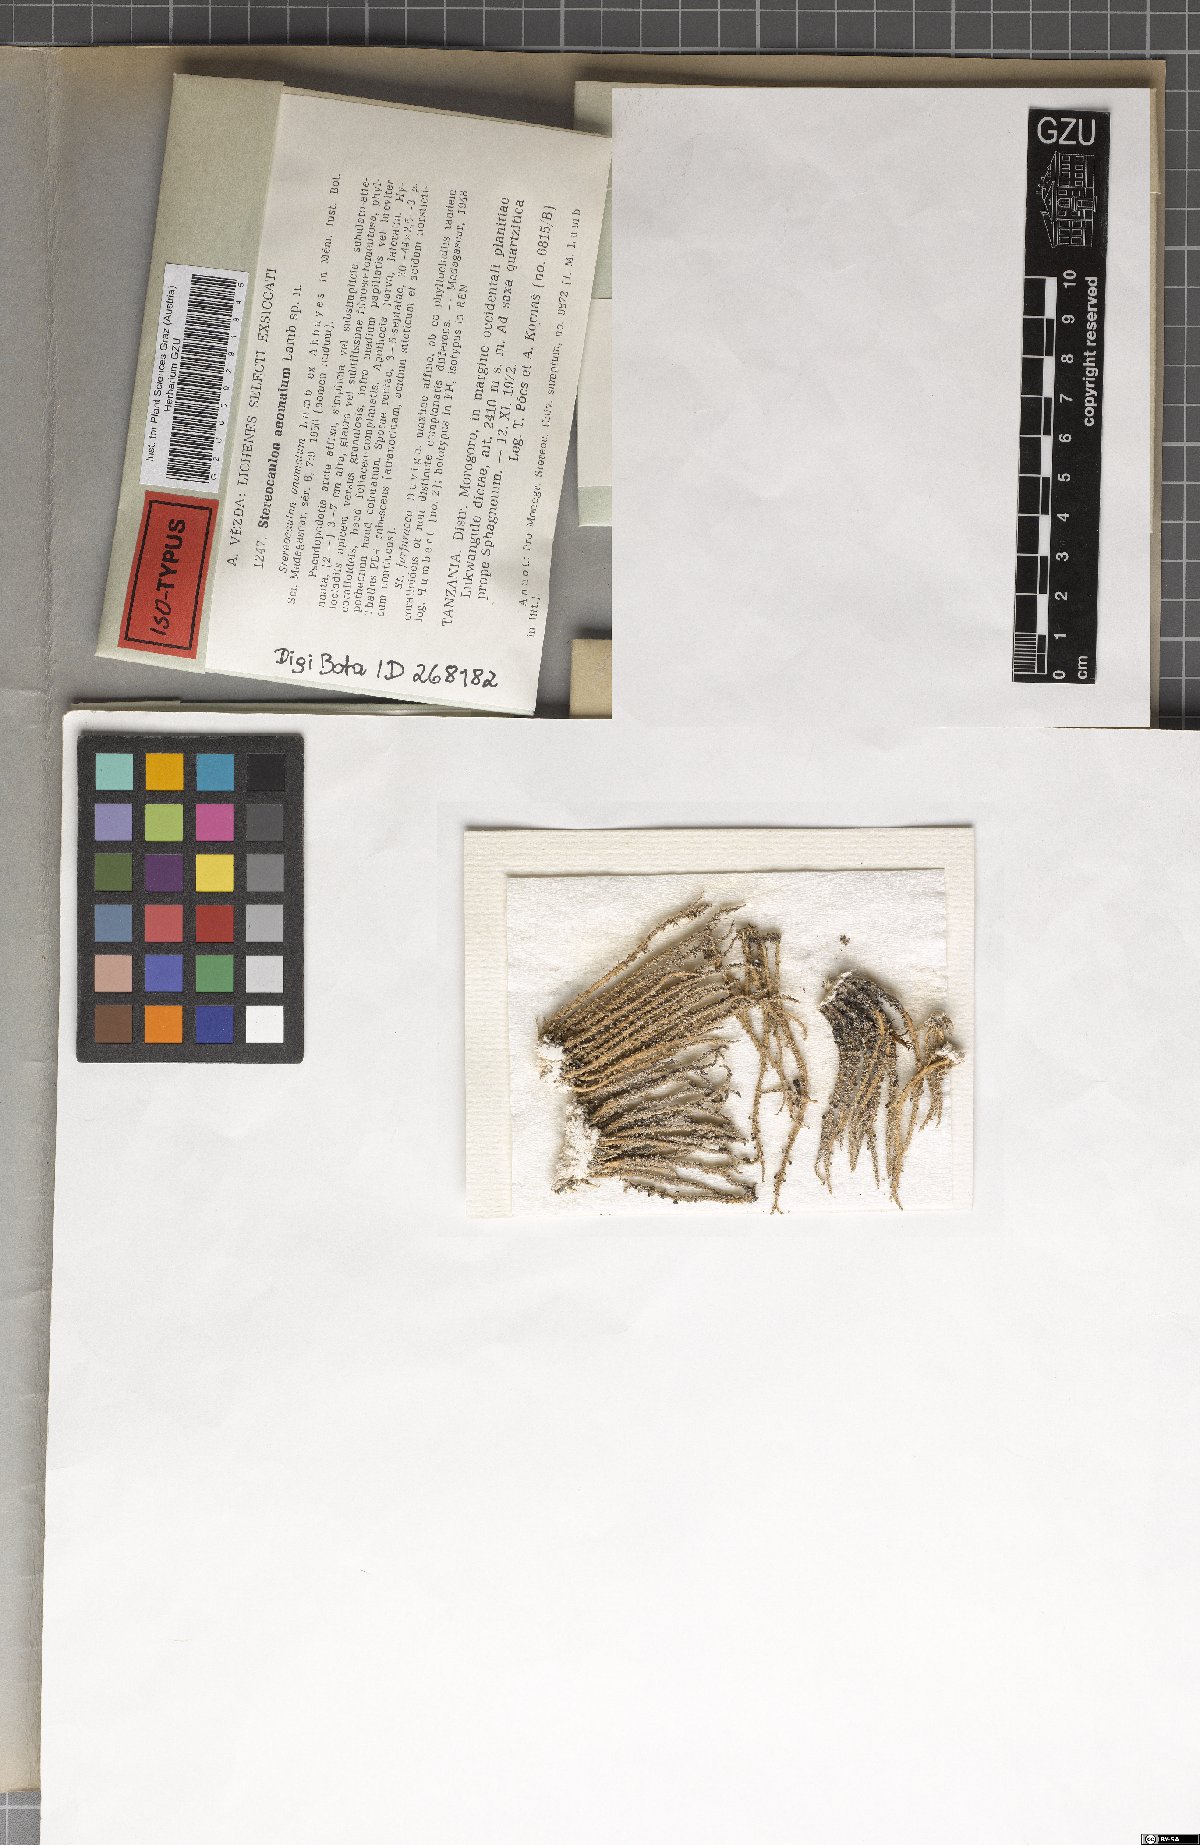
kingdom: Fungi
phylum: Ascomycota
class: Lecanoromycetes
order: Lecanorales
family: Stereocaulaceae
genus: Stereocaulon
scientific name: Stereocaulon anomalum
